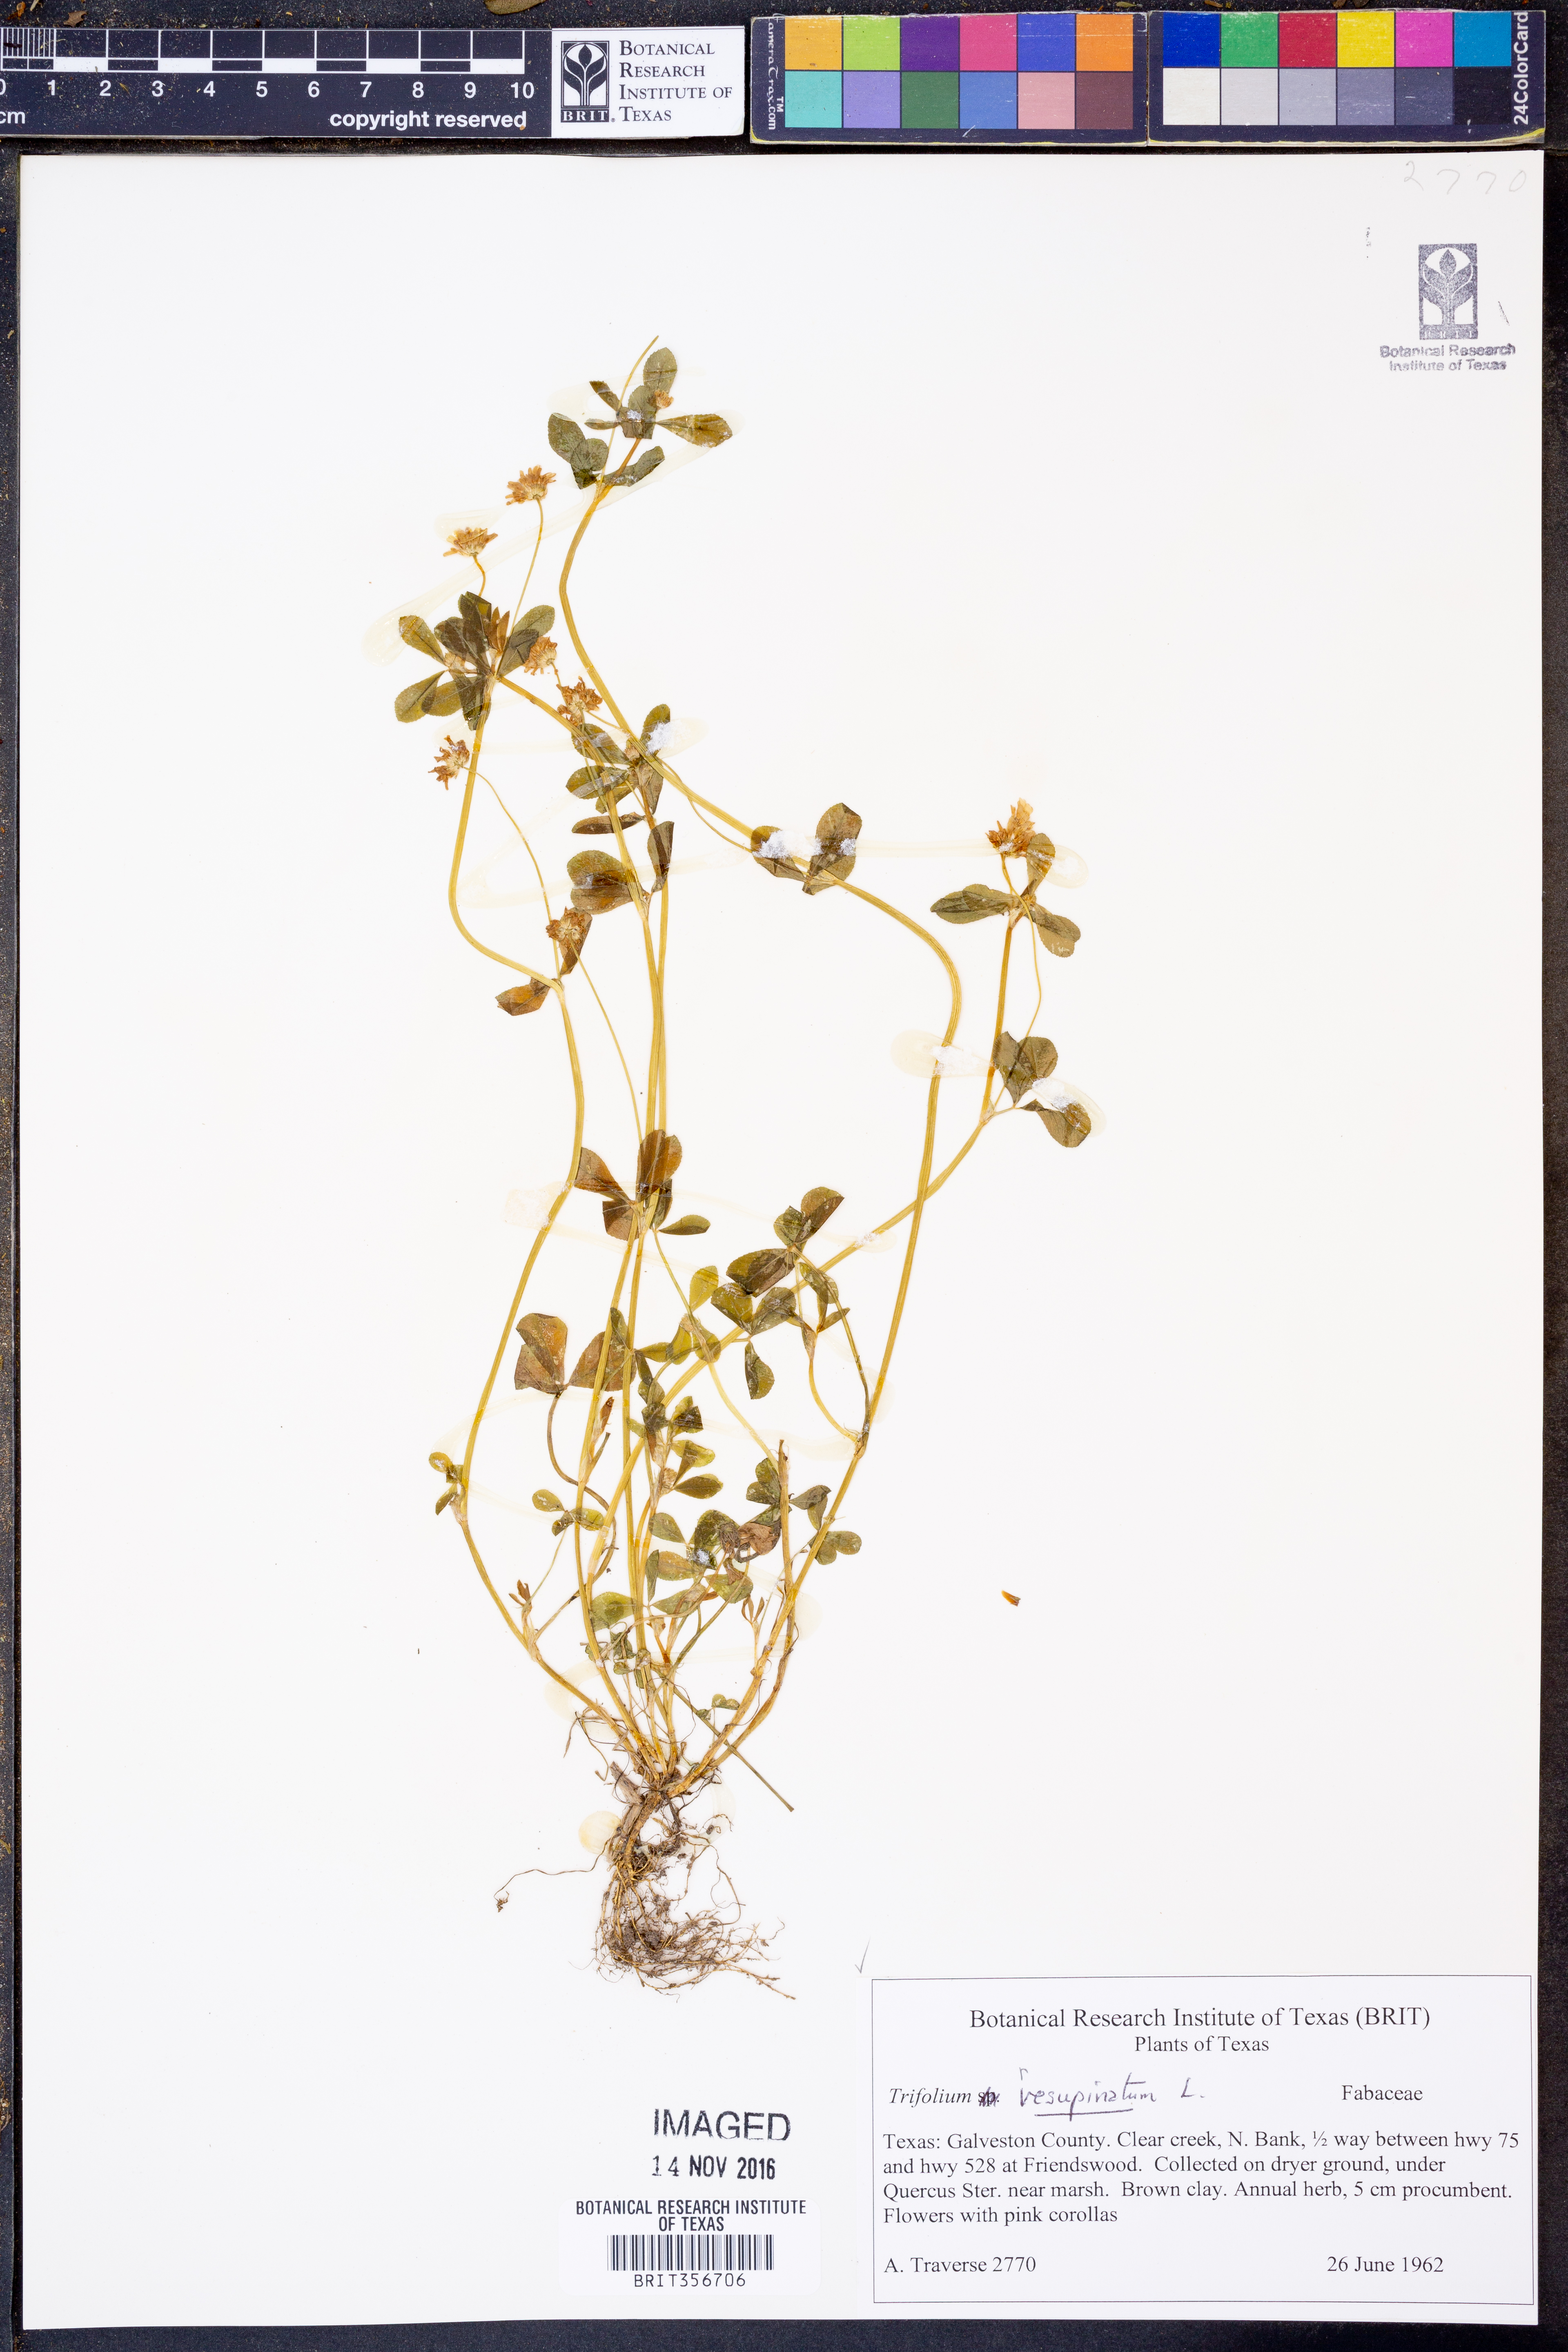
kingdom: Plantae
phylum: Tracheophyta
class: Magnoliopsida
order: Fabales
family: Fabaceae
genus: Trifolium
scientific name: Trifolium vesiculosum
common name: Arrowleaf clover
